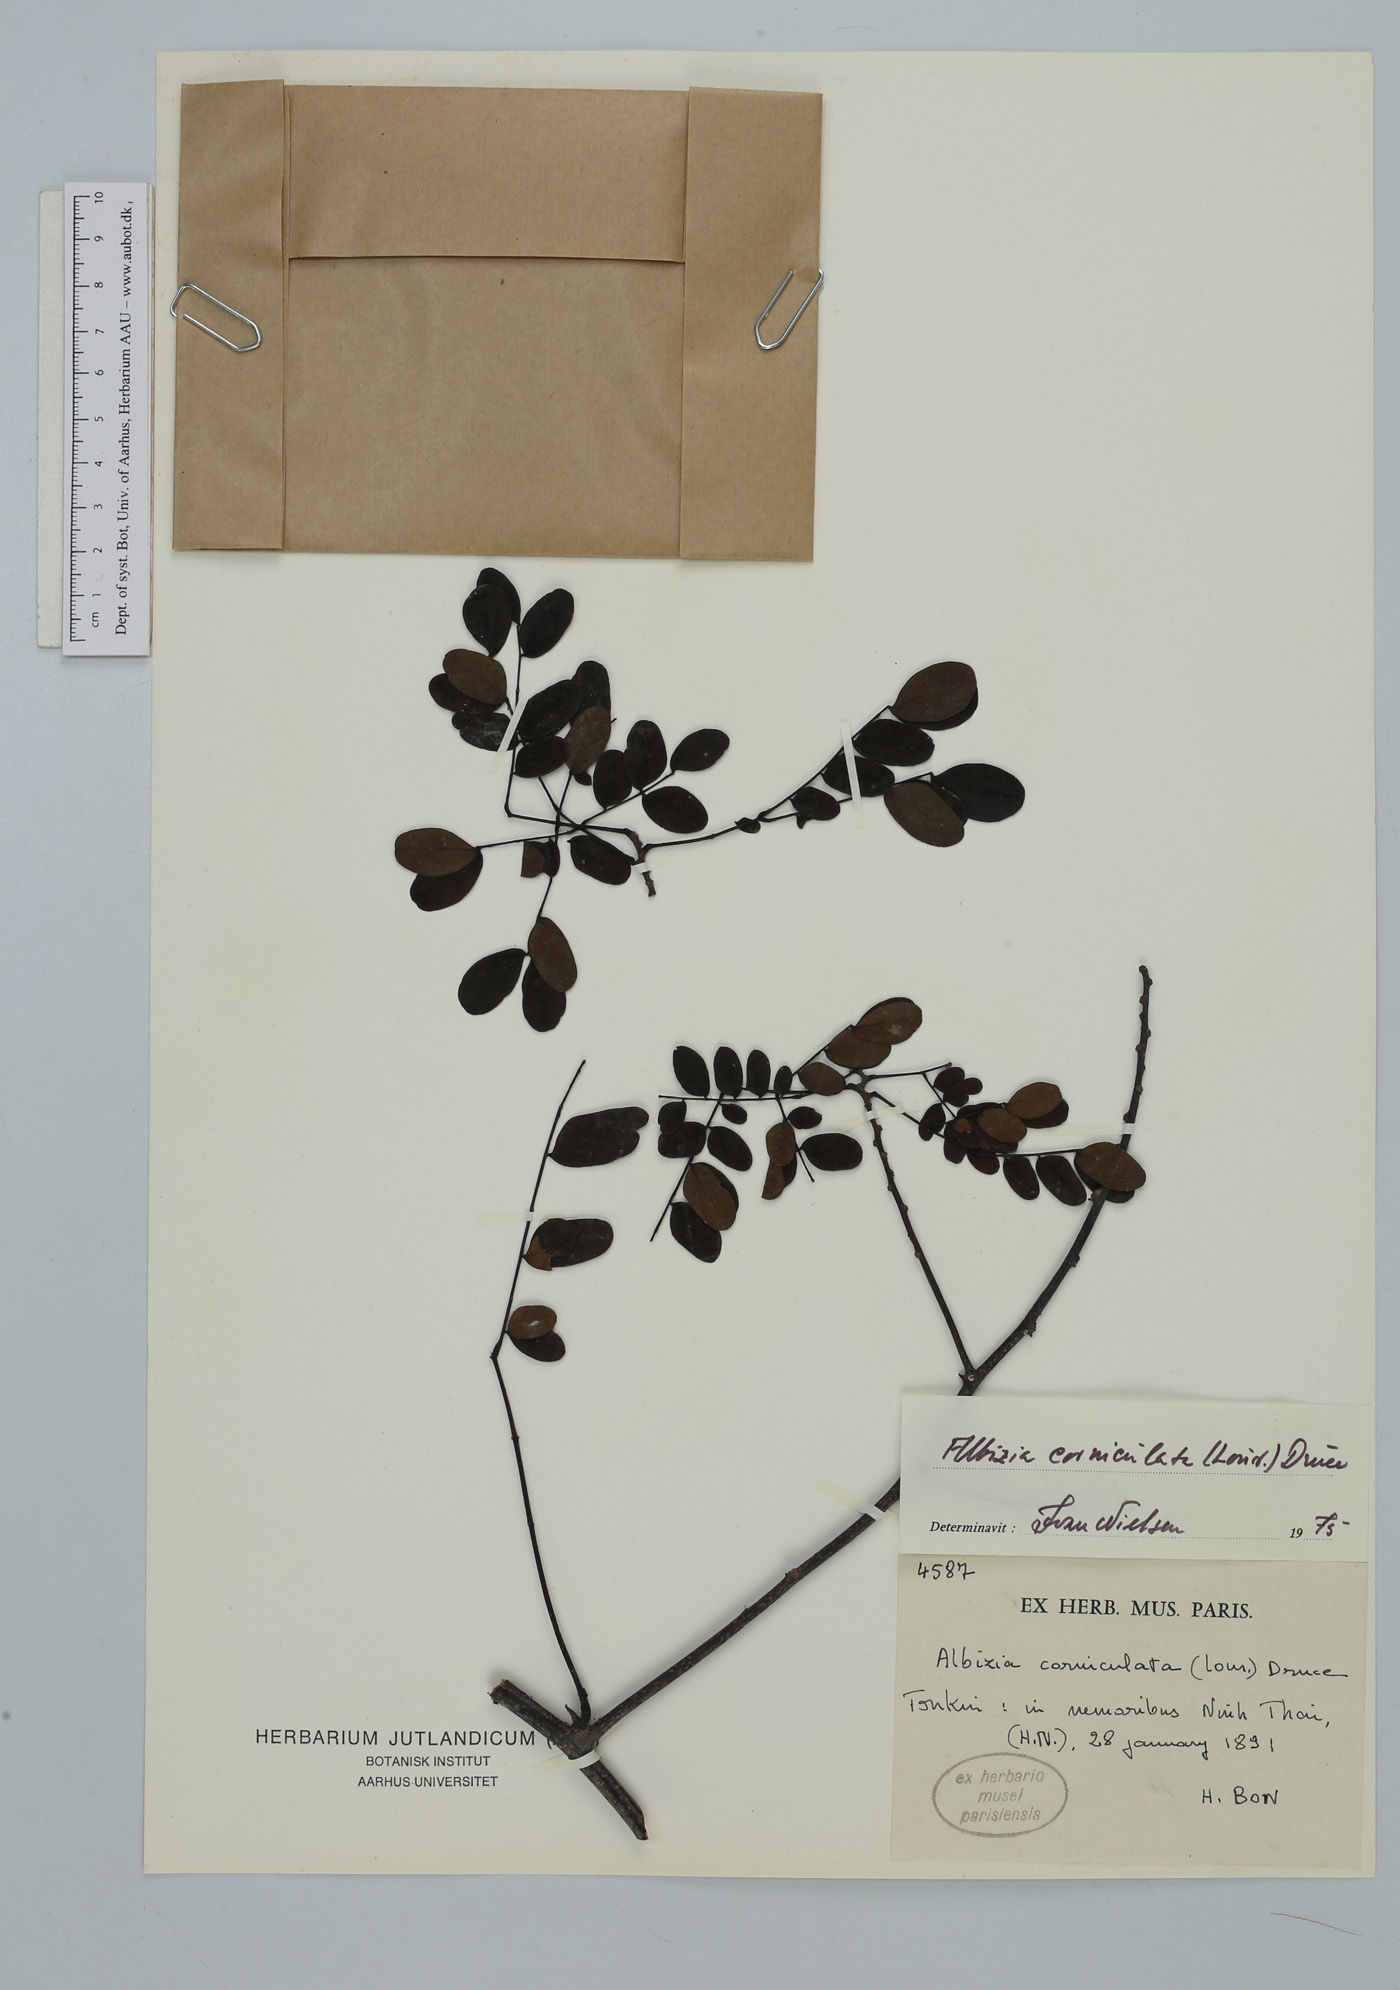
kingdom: Plantae
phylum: Tracheophyta
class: Magnoliopsida
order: Fabales
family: Fabaceae
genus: Albizia
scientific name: Albizia corniculata
